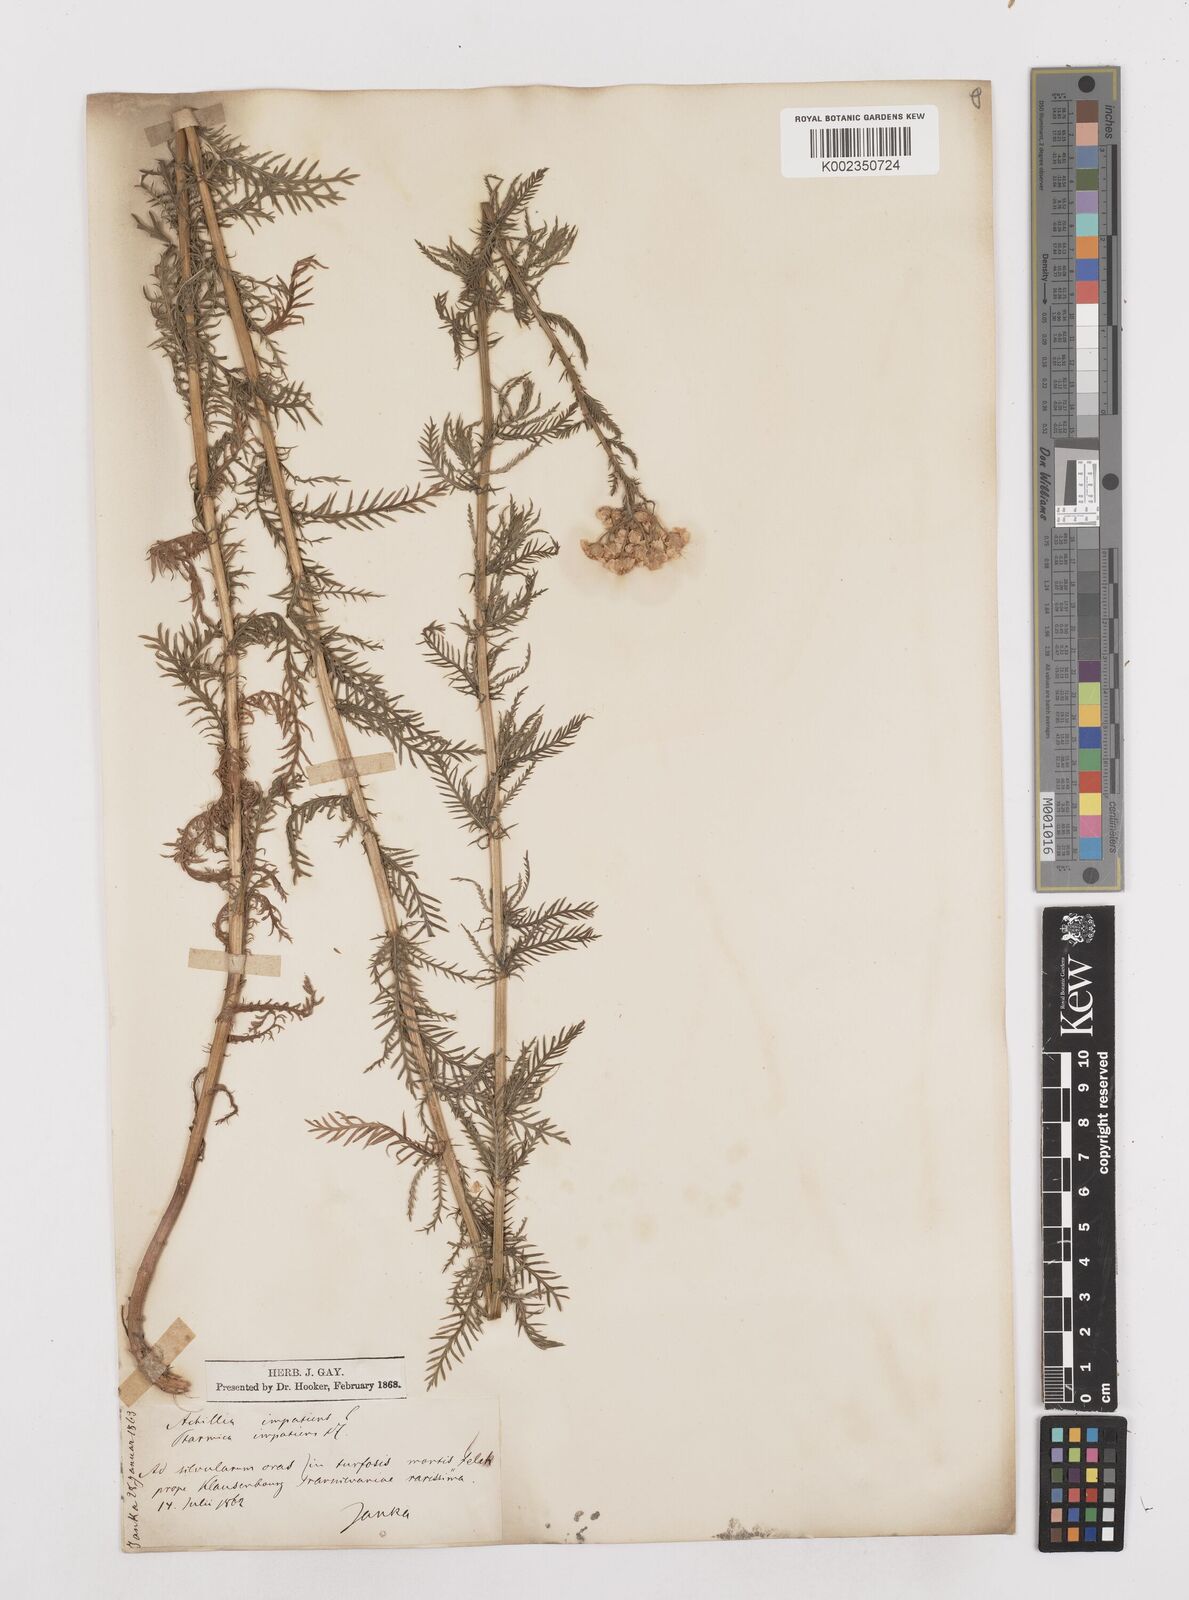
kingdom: Plantae
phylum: Tracheophyta
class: Magnoliopsida
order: Asterales
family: Asteraceae
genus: Achillea
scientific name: Achillea impatiens
